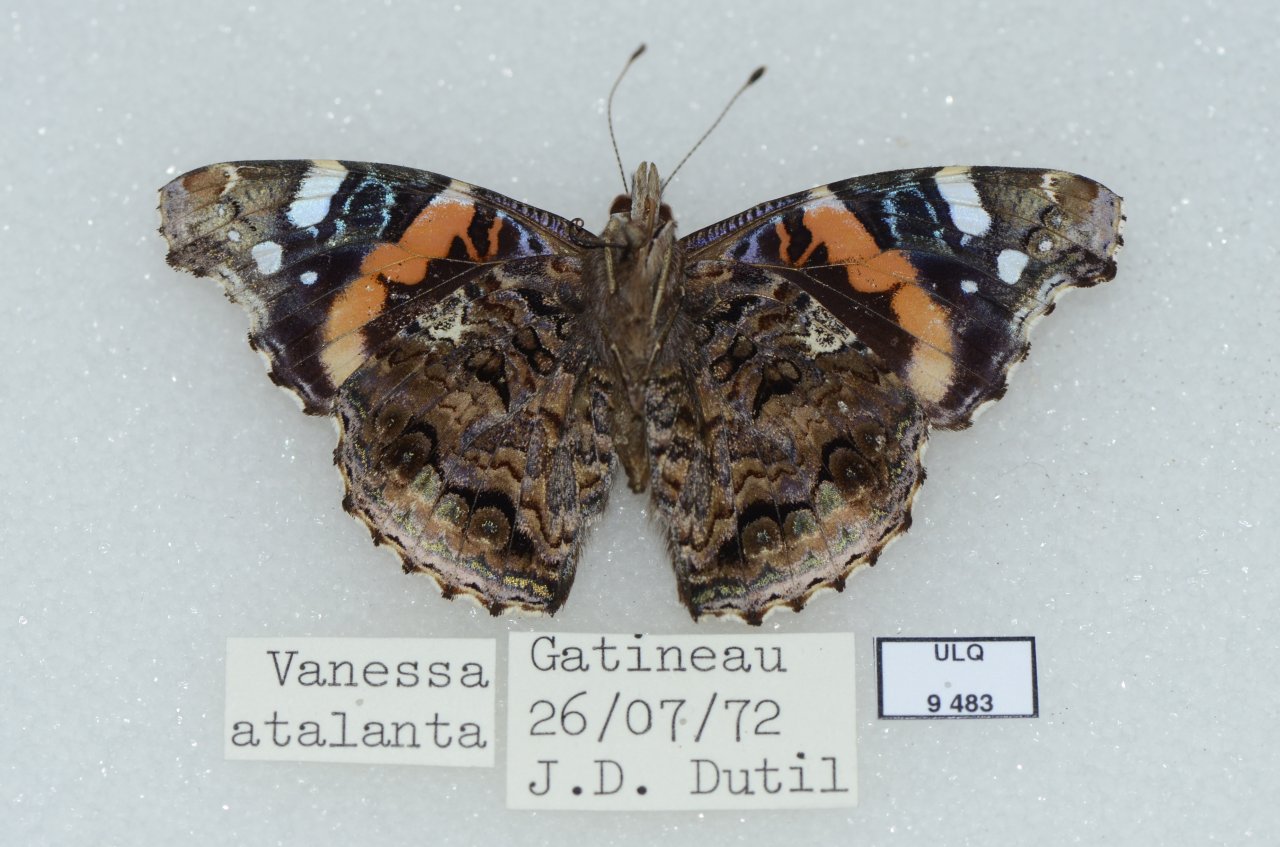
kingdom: Animalia
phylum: Arthropoda
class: Insecta
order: Lepidoptera
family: Nymphalidae
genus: Vanessa
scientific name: Vanessa atalanta
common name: Red Admiral
